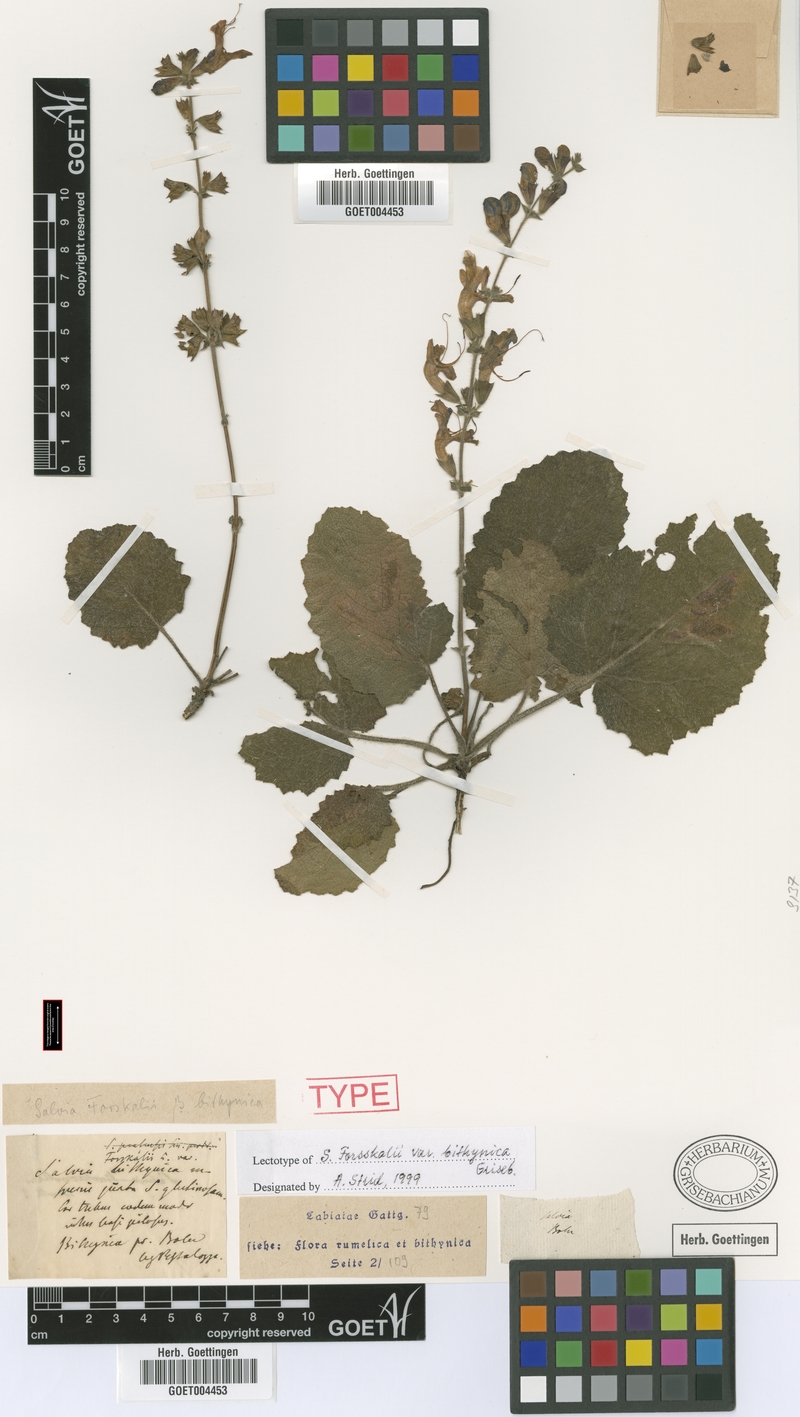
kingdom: Plantae
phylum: Tracheophyta
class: Magnoliopsida
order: Lamiales
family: Lamiaceae
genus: Salvia
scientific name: Salvia
